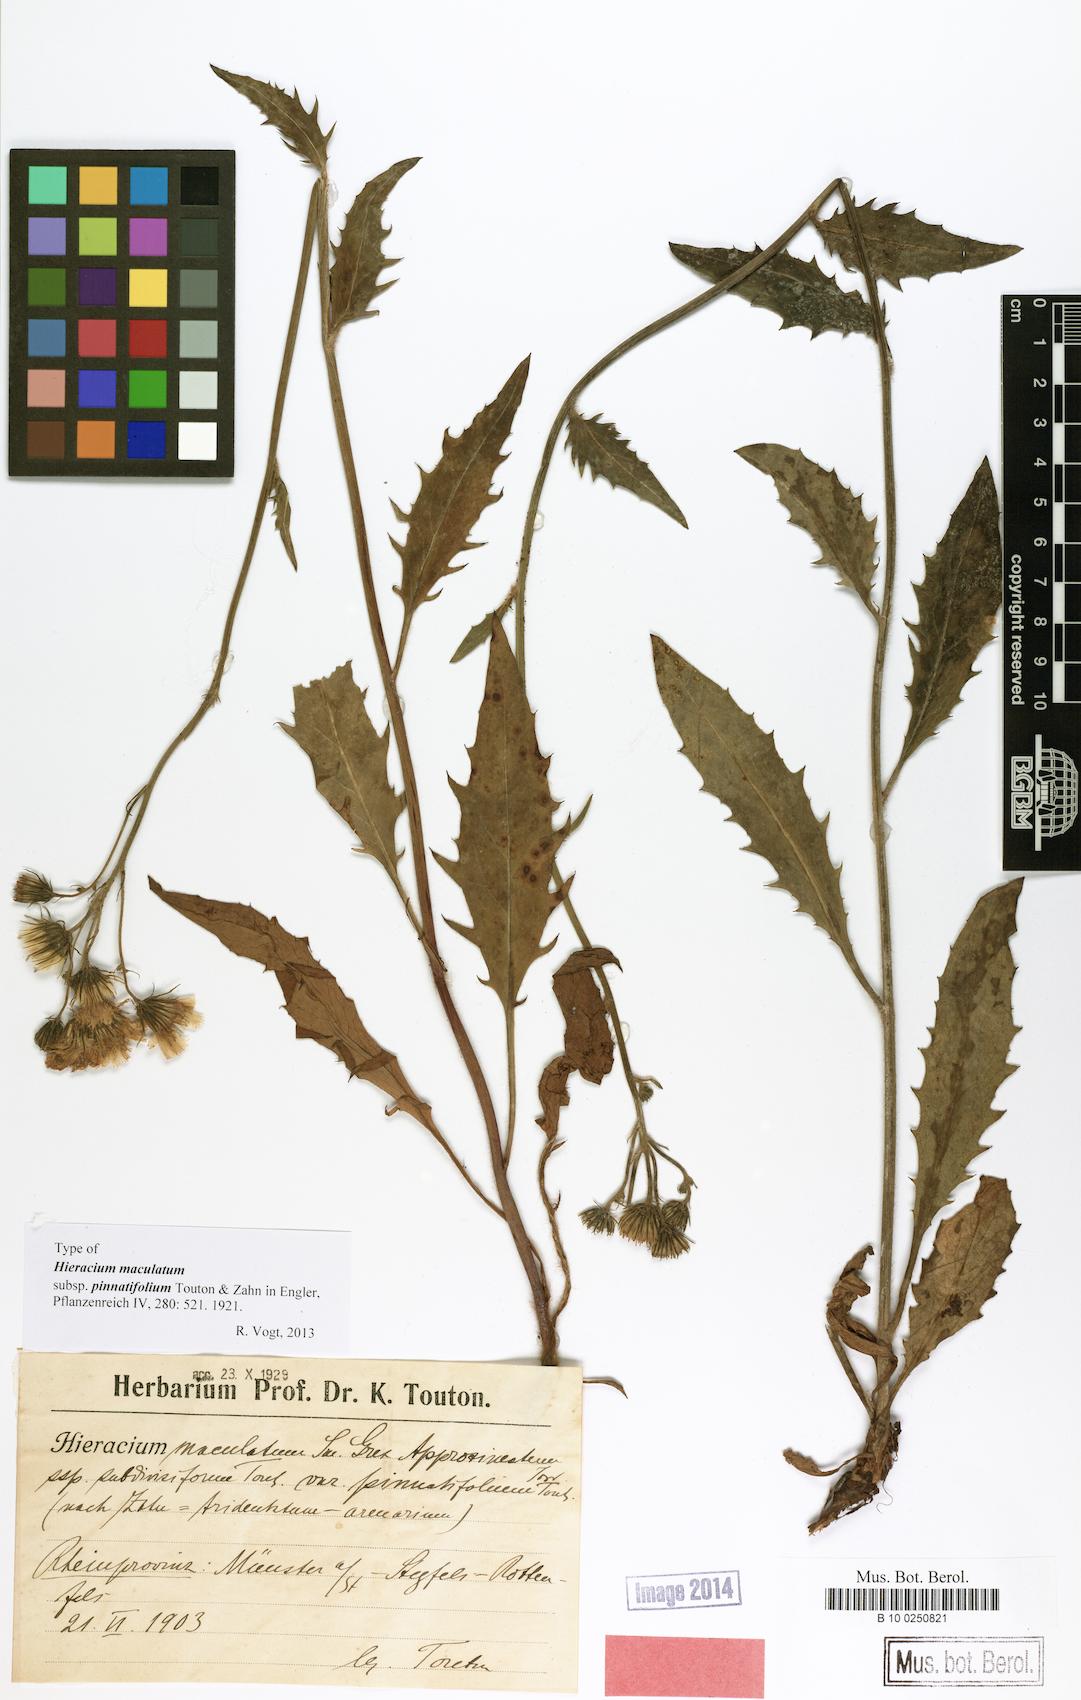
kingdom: Plantae
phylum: Tracheophyta
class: Magnoliopsida
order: Asterales
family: Asteraceae
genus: Hieracium
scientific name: Hieracium maculatum
